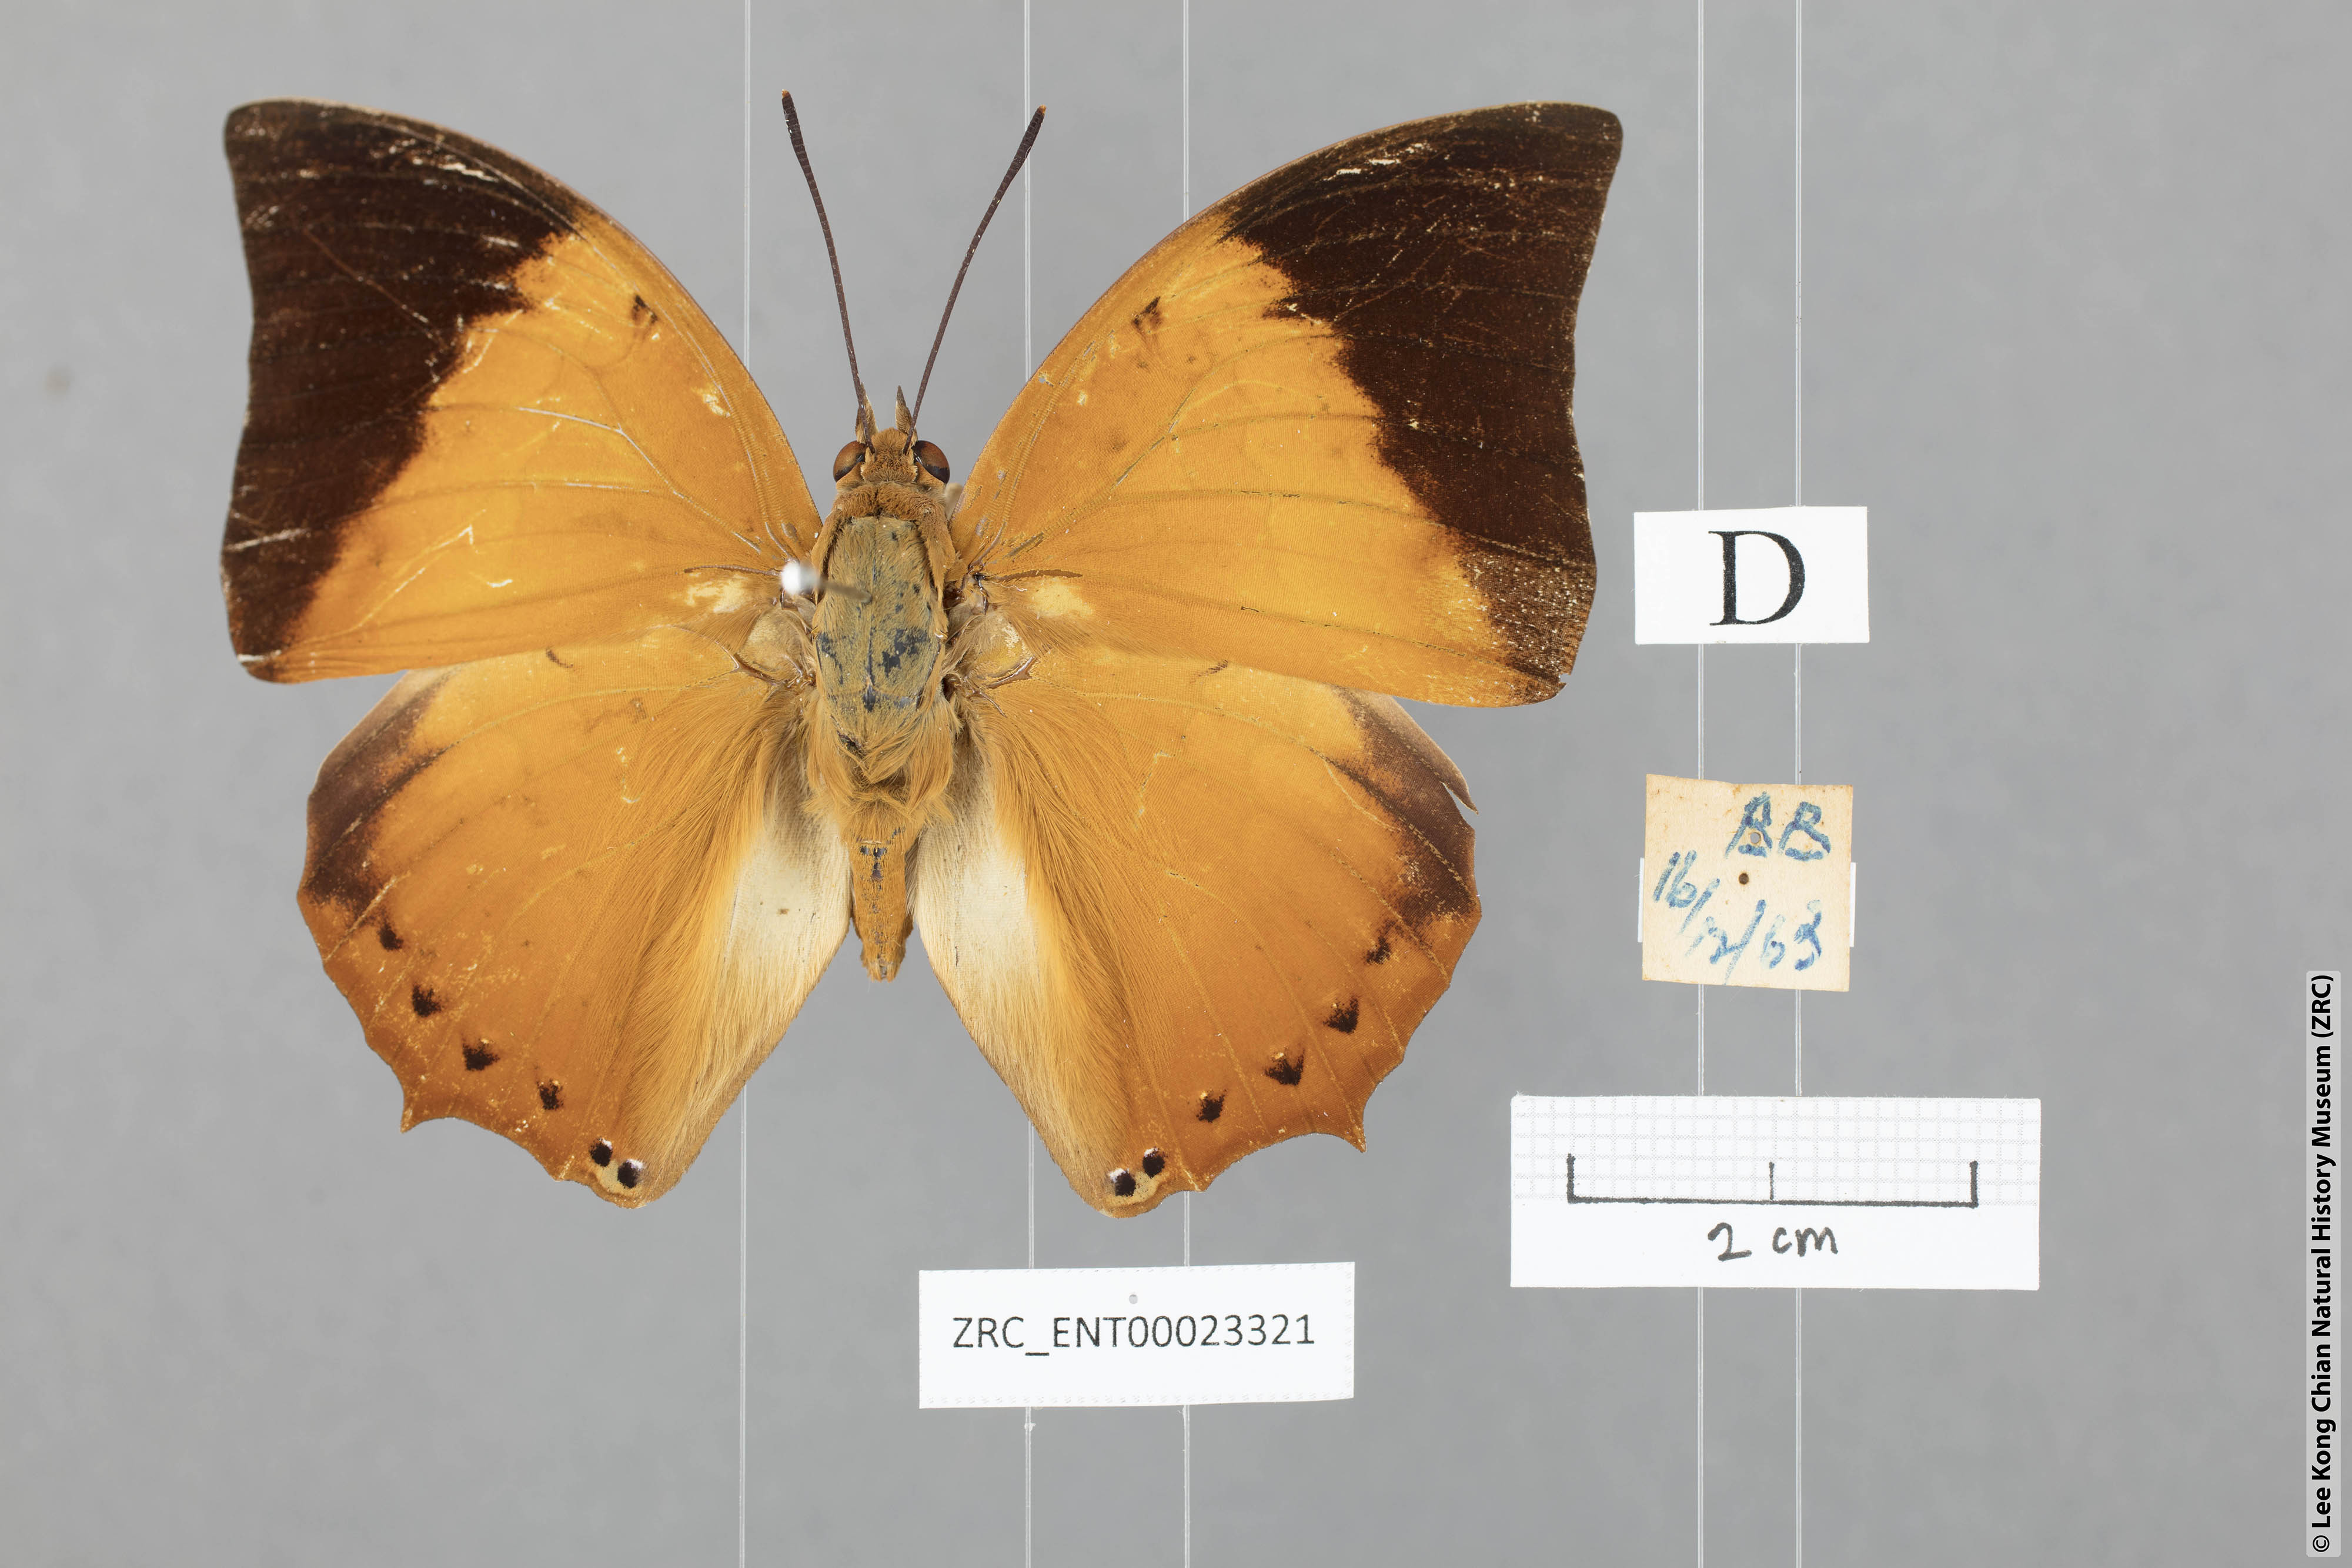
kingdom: Animalia
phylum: Arthropoda
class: Insecta
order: Lepidoptera
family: Nymphalidae
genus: Charaxes
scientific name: Charaxes bernardus
